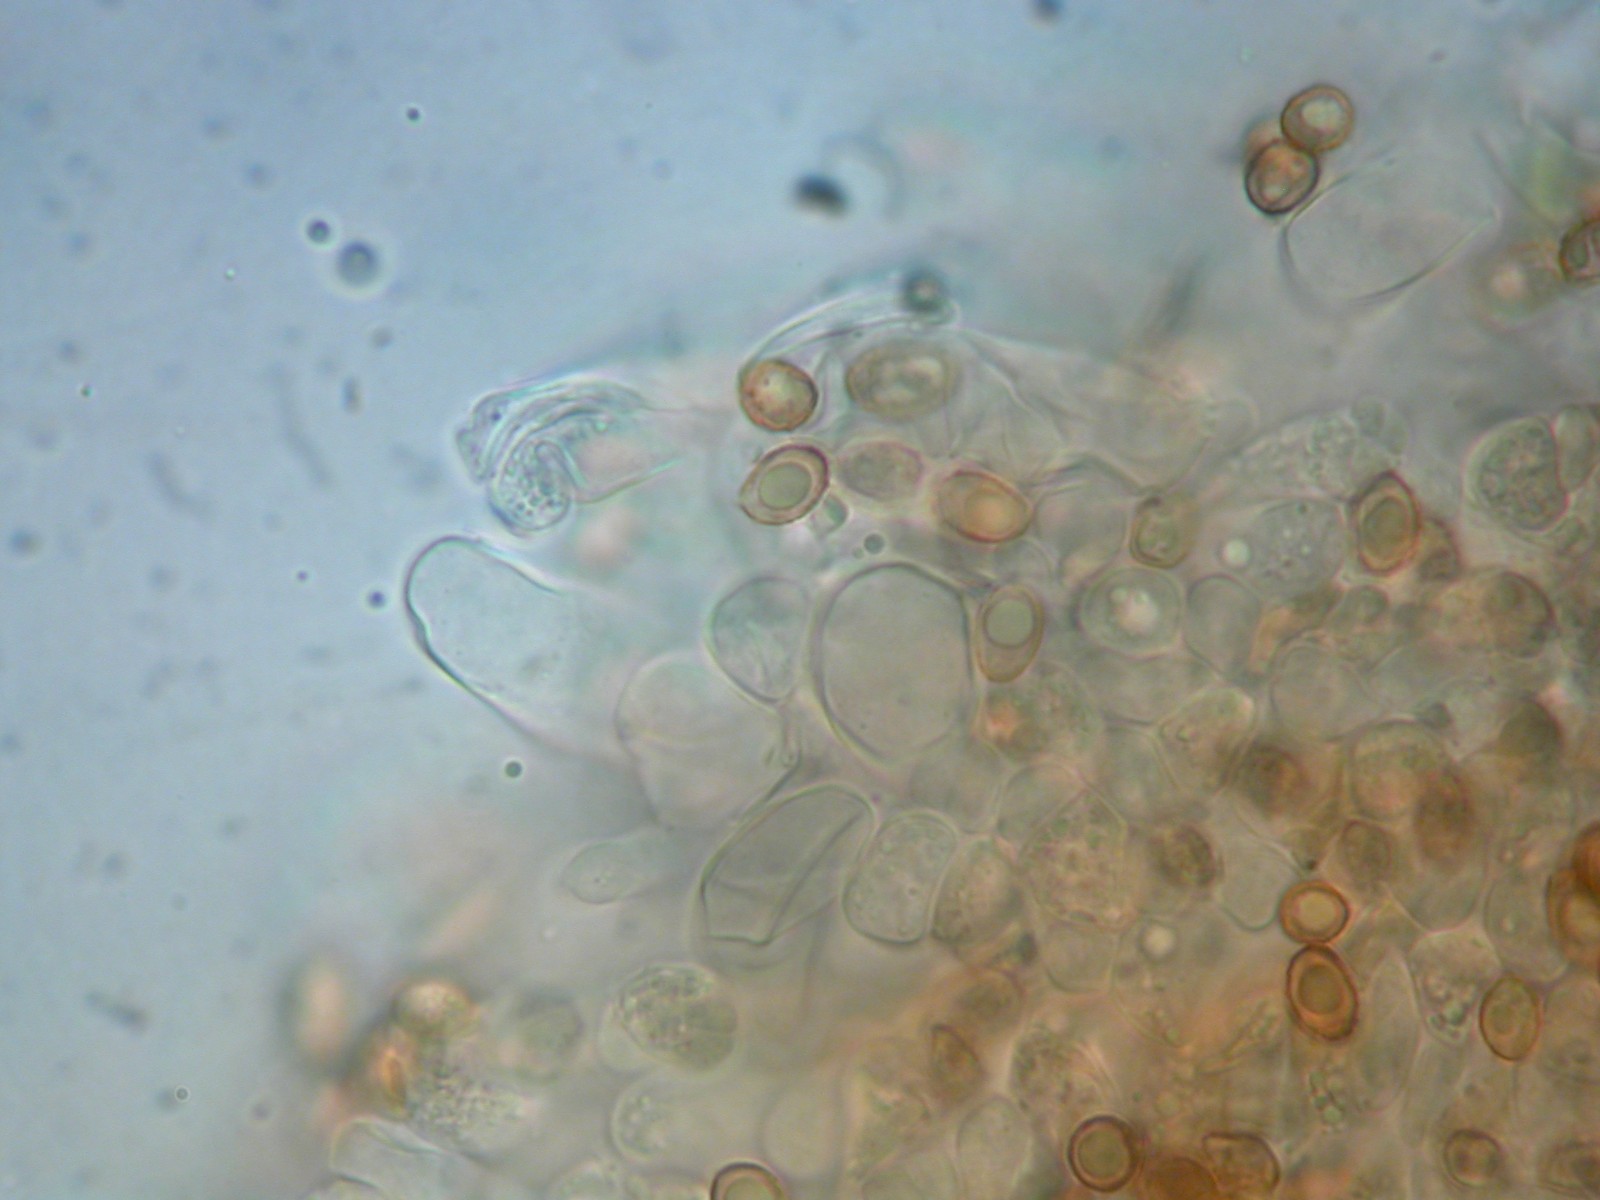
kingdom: Fungi
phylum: Basidiomycota
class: Agaricomycetes
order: Agaricales
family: Cortinariaceae
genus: Cortinarius
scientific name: Cortinarius nanus
